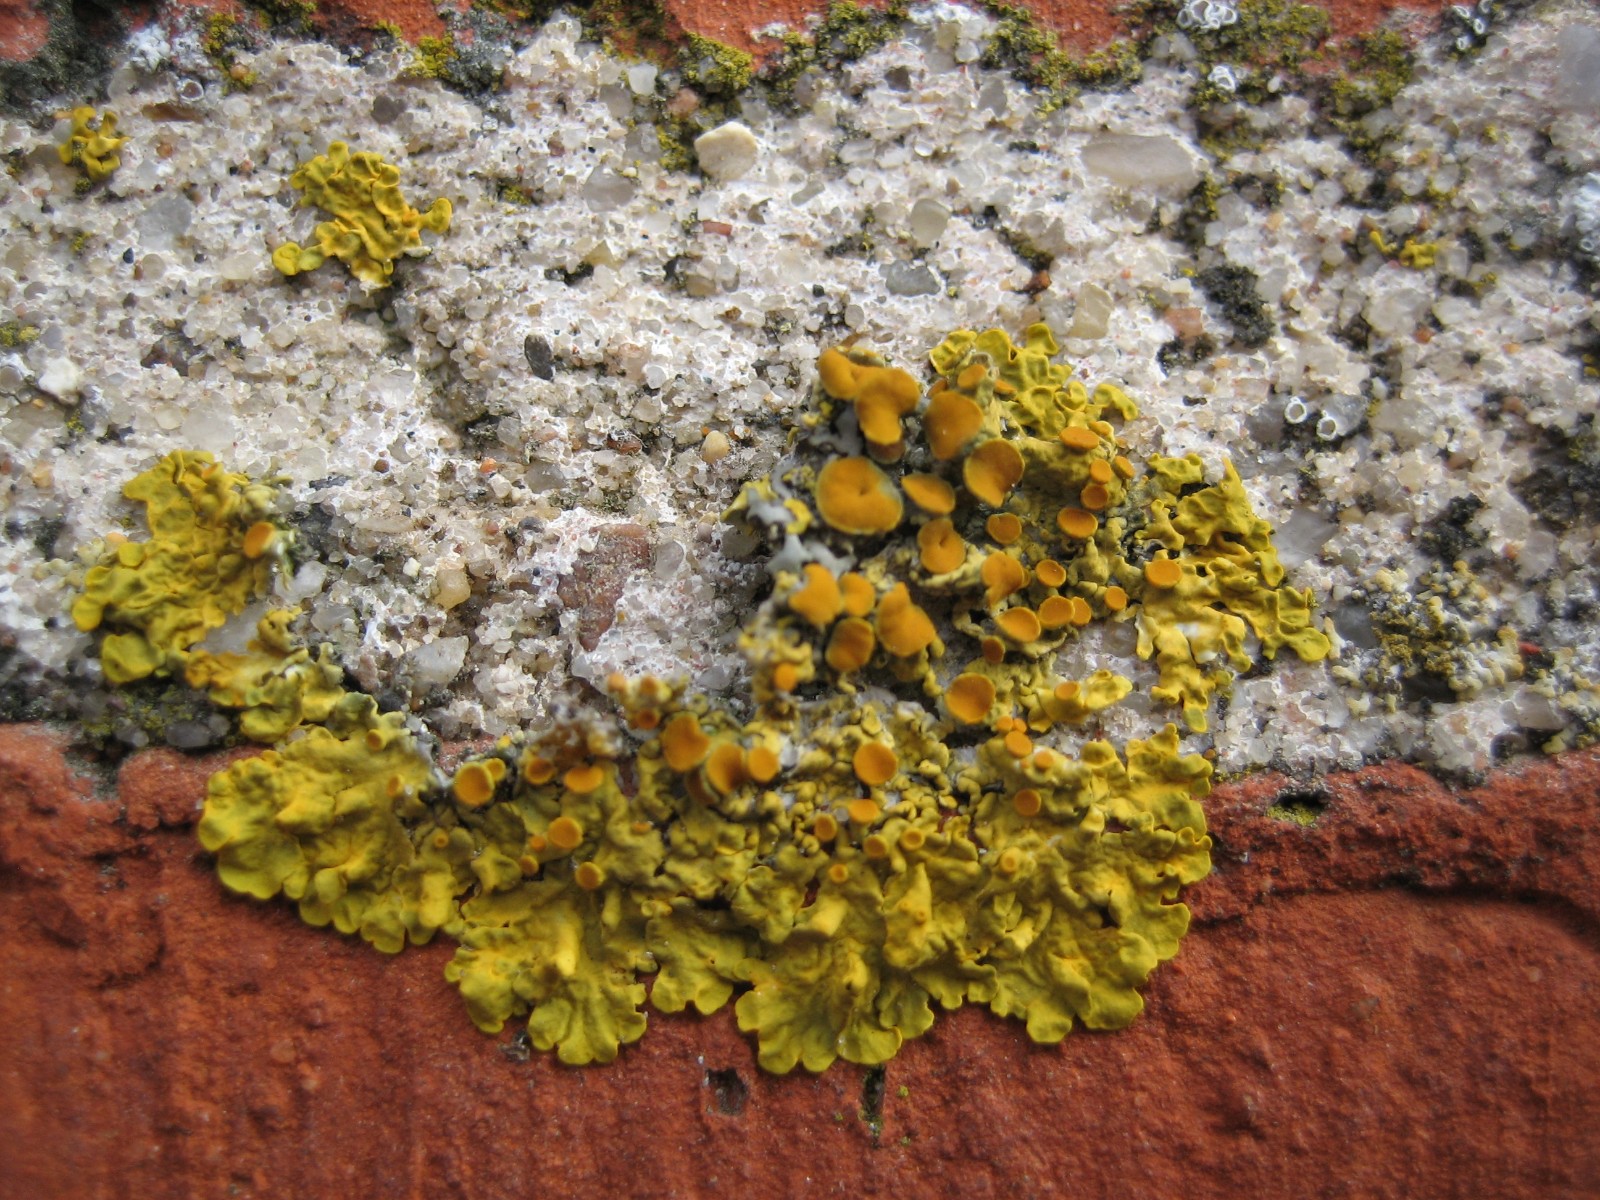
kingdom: Fungi
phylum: Ascomycota
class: Lecanoromycetes
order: Teloschistales
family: Teloschistaceae
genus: Xanthoria
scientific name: Xanthoria parietina
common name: almindelig væggelav
